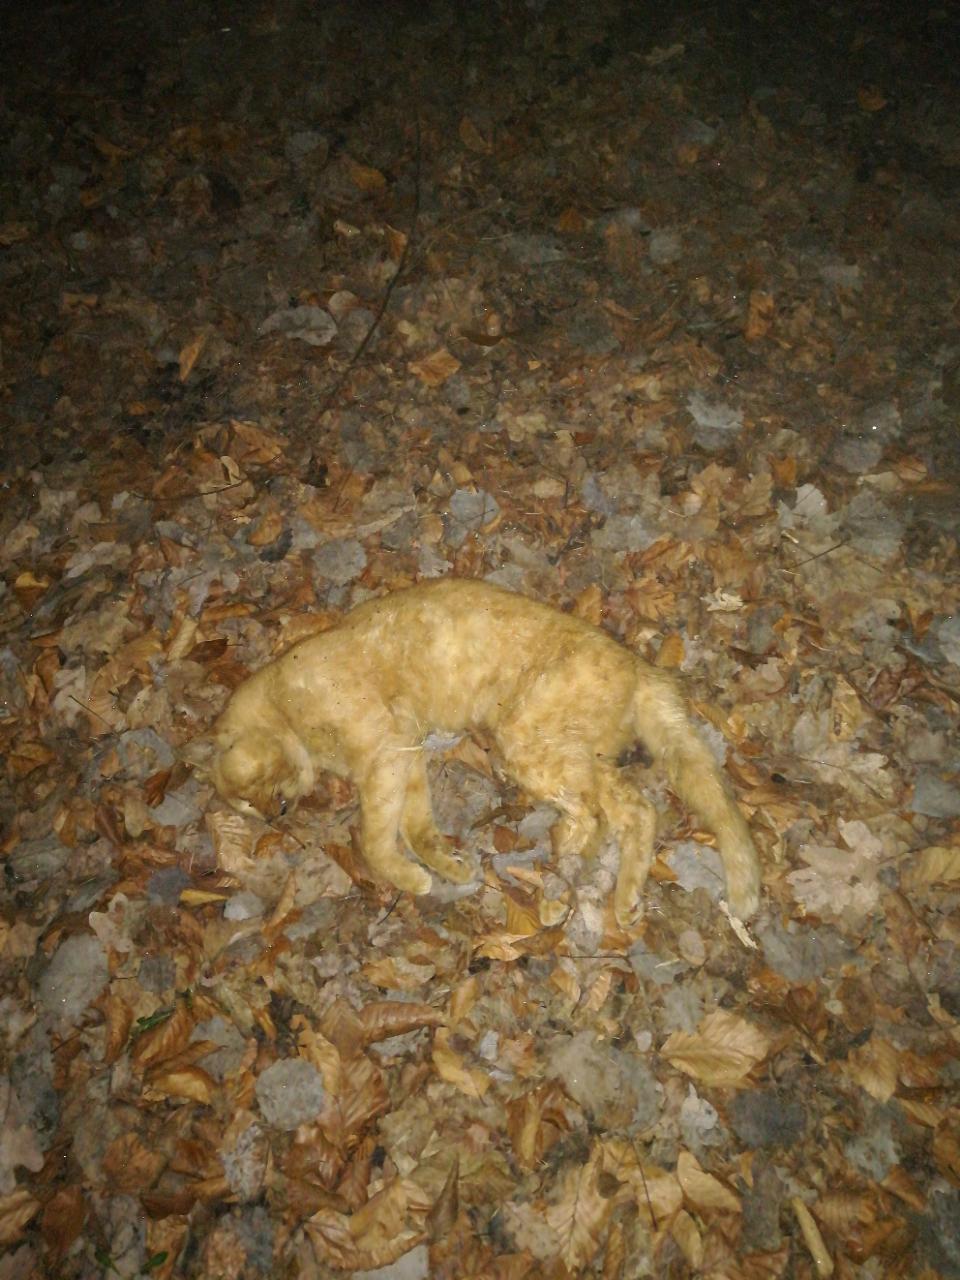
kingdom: Animalia
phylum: Chordata
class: Mammalia
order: Carnivora
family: Felidae
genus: Felis
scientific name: Felis catus
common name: Domestic cat
